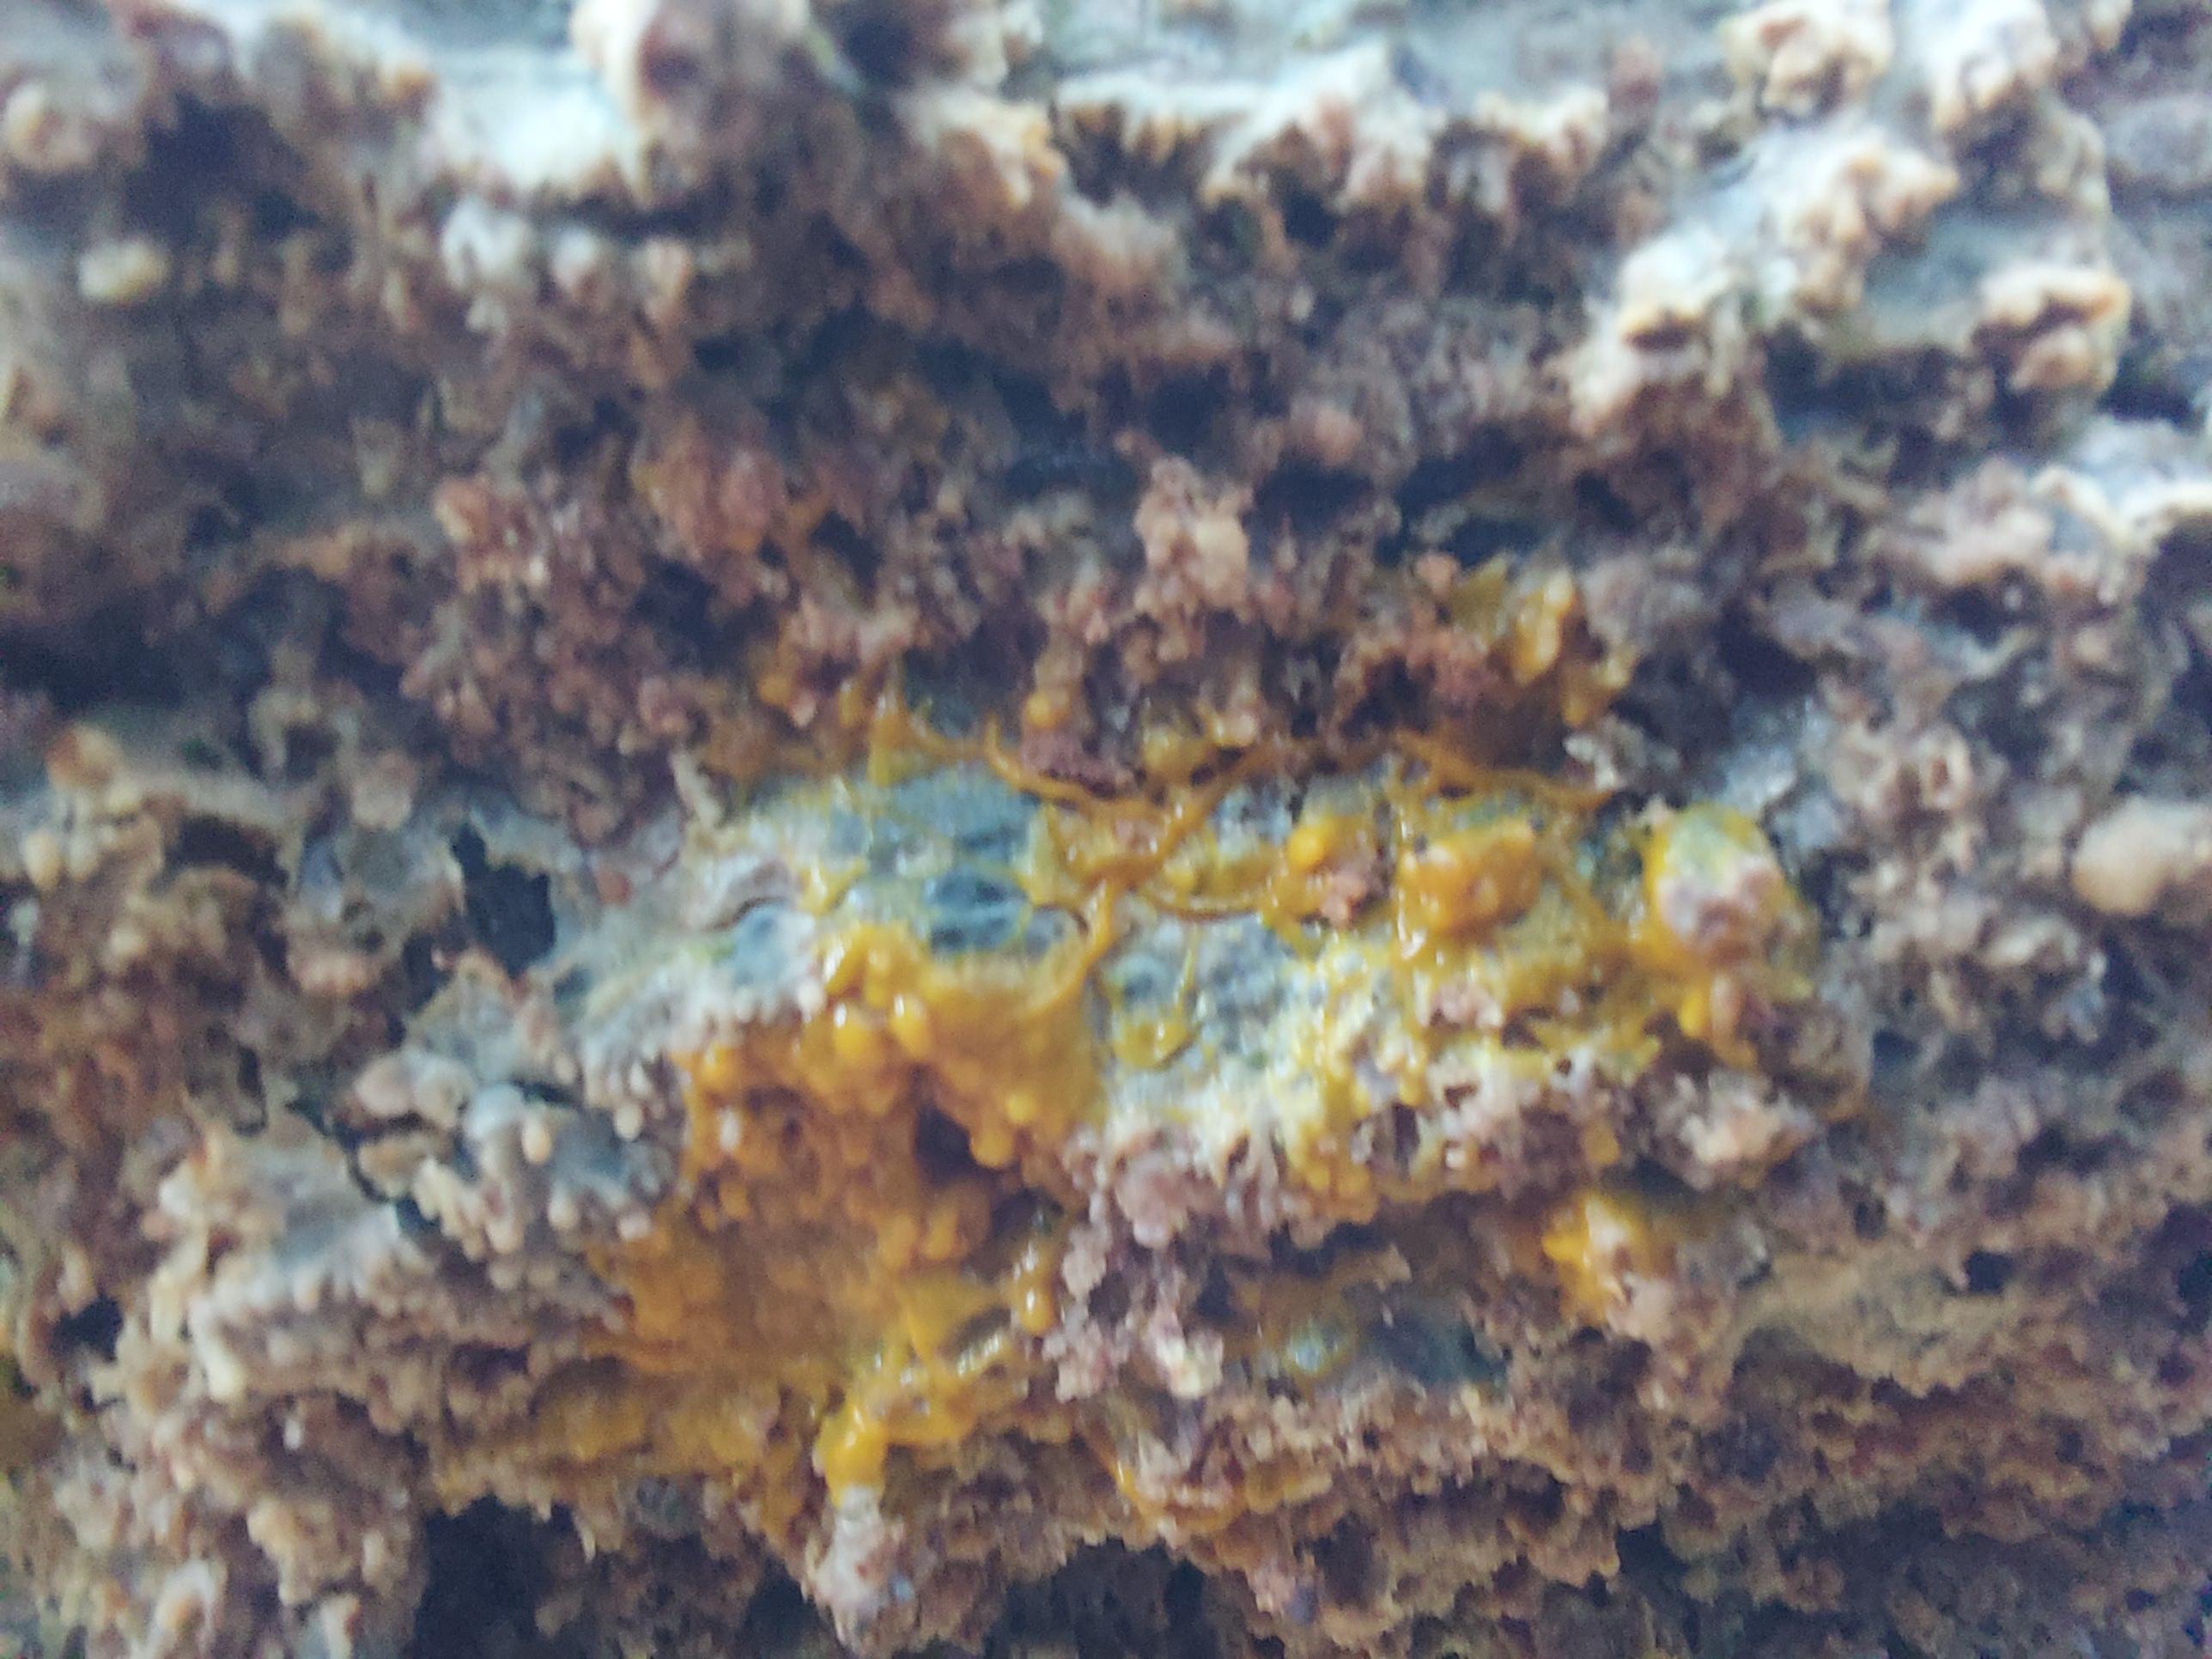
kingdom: Protozoa
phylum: Mycetozoa
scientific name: Mycetozoa
